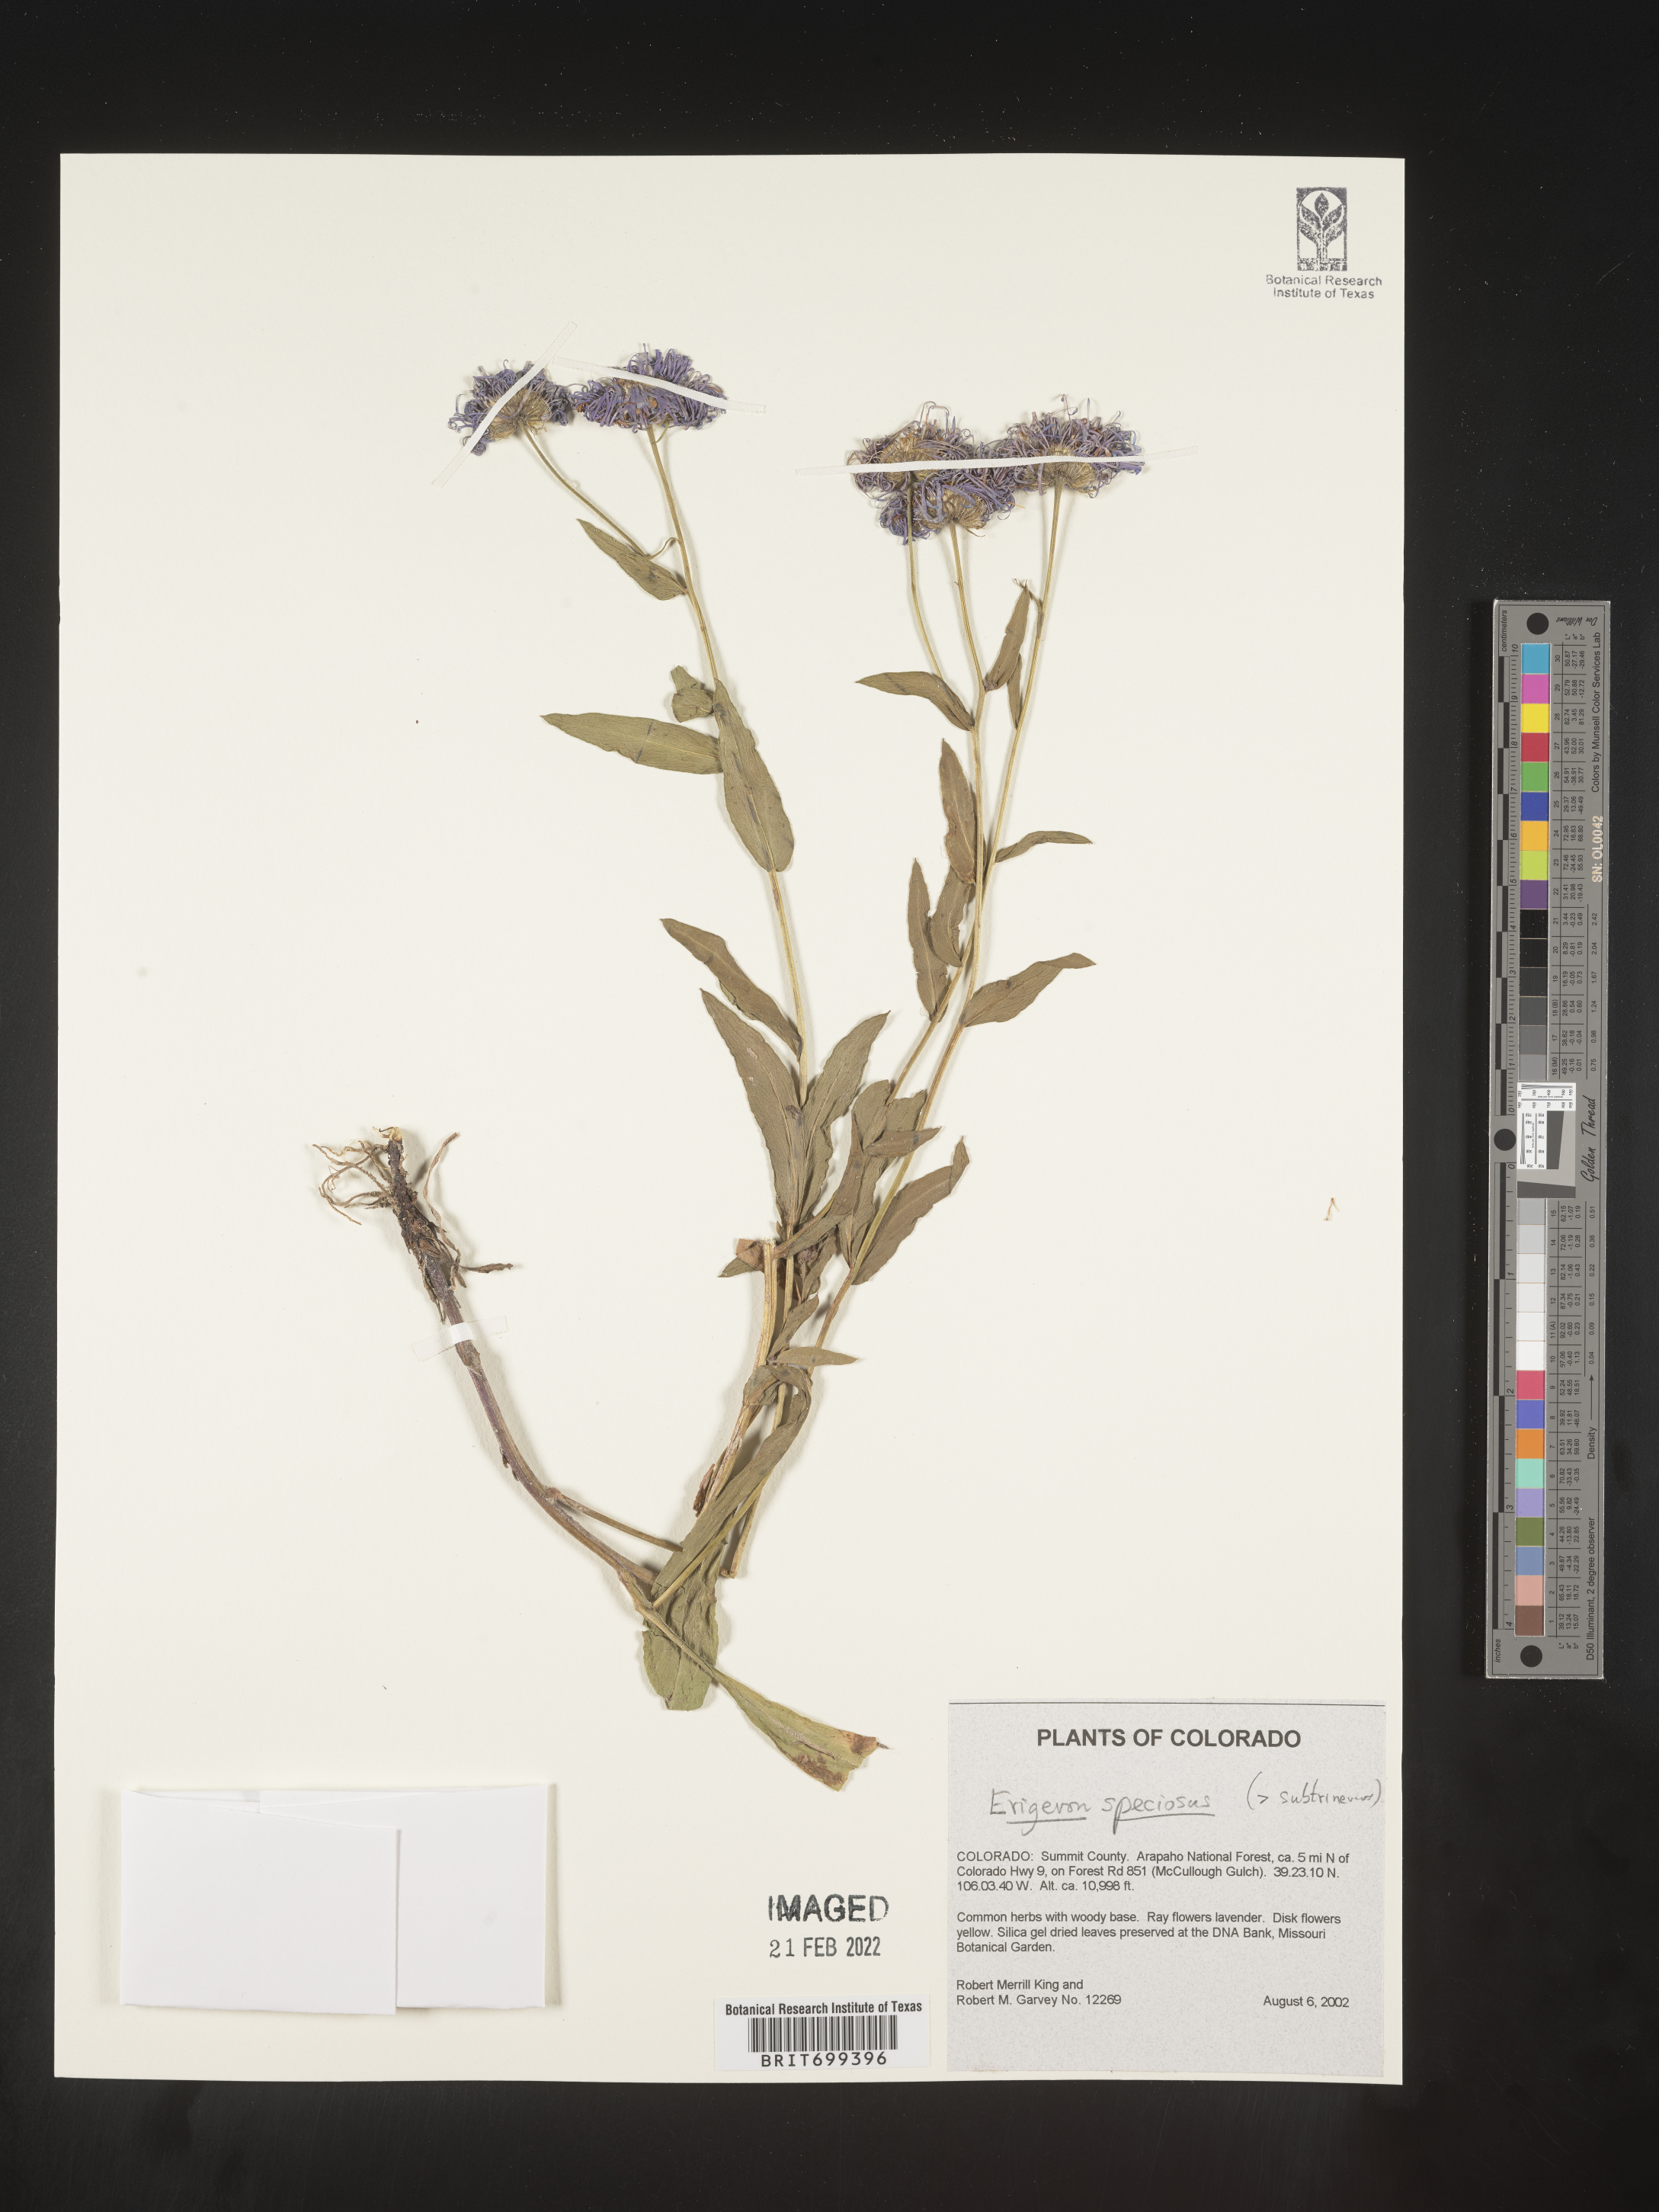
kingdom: Plantae
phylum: Tracheophyta
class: Magnoliopsida
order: Asterales
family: Asteraceae
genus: Erigeron
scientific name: Erigeron speciosus
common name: Aspen fleabane
